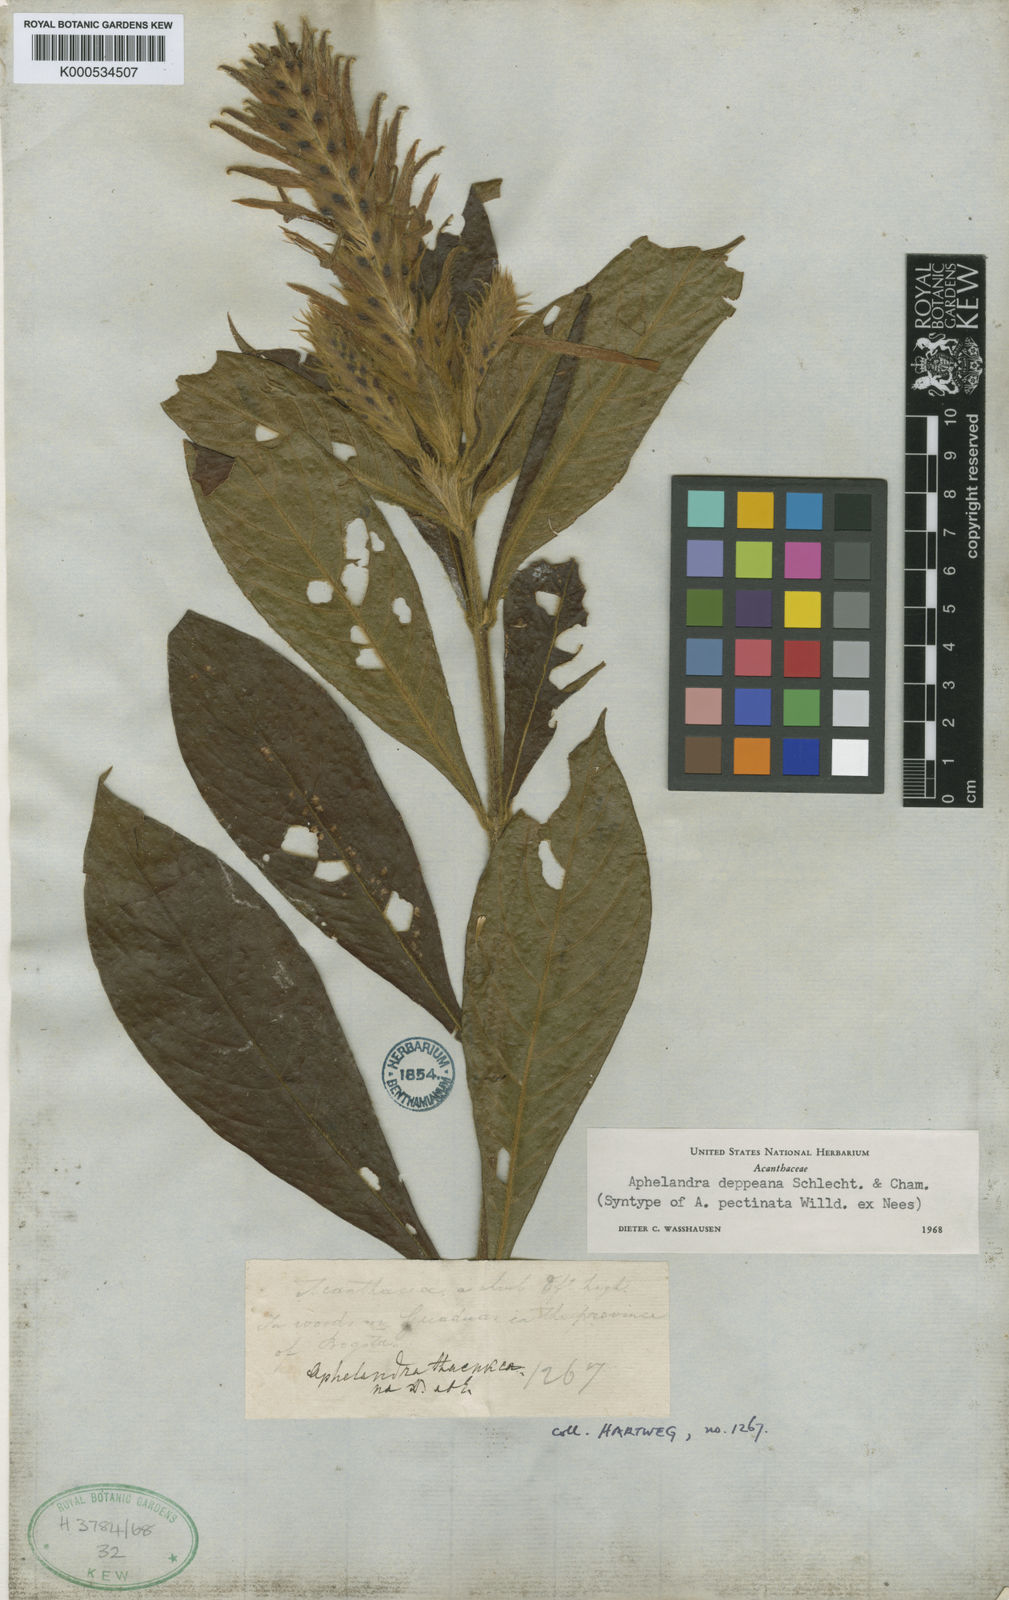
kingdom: Plantae
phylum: Tracheophyta
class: Magnoliopsida
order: Lamiales
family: Acanthaceae
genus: Aphelandra
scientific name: Aphelandra scabra
